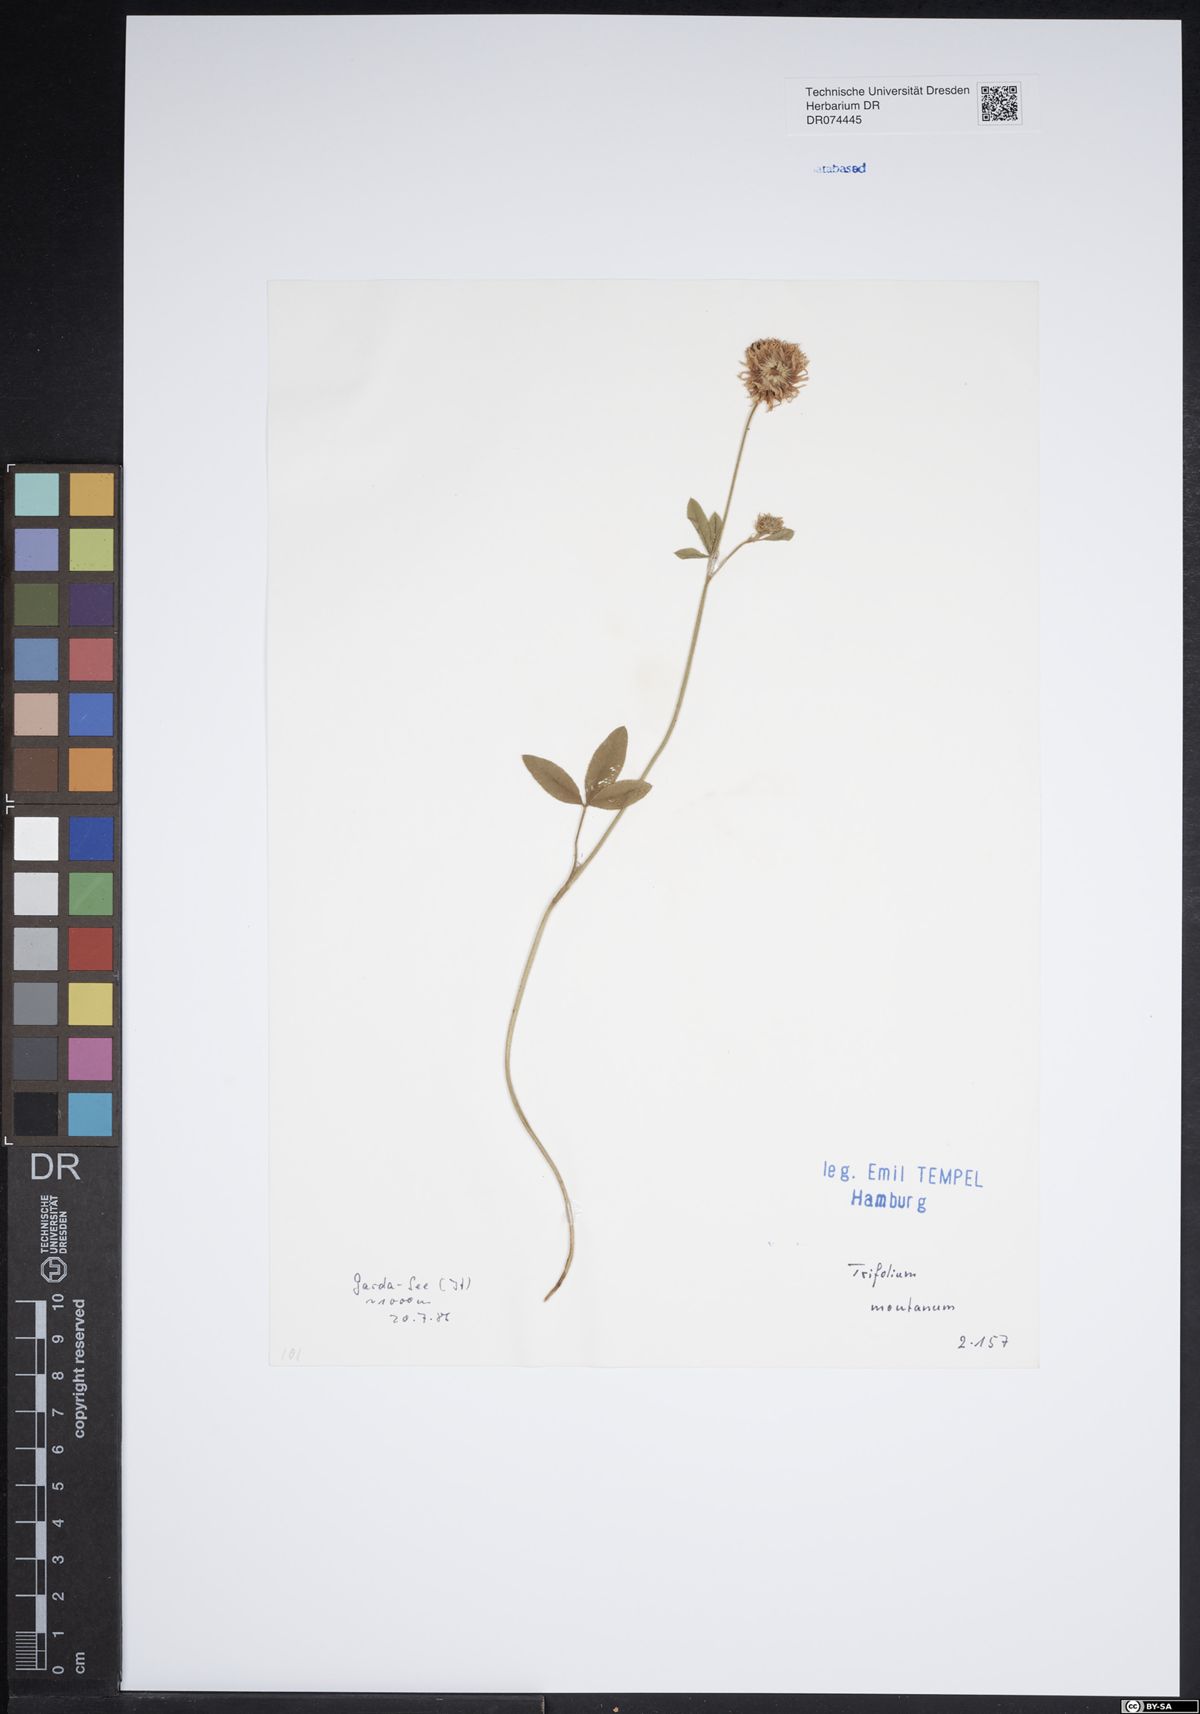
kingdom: Plantae
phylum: Tracheophyta
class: Magnoliopsida
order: Fabales
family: Fabaceae
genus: Trifolium
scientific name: Trifolium montanum
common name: Mountain clover
